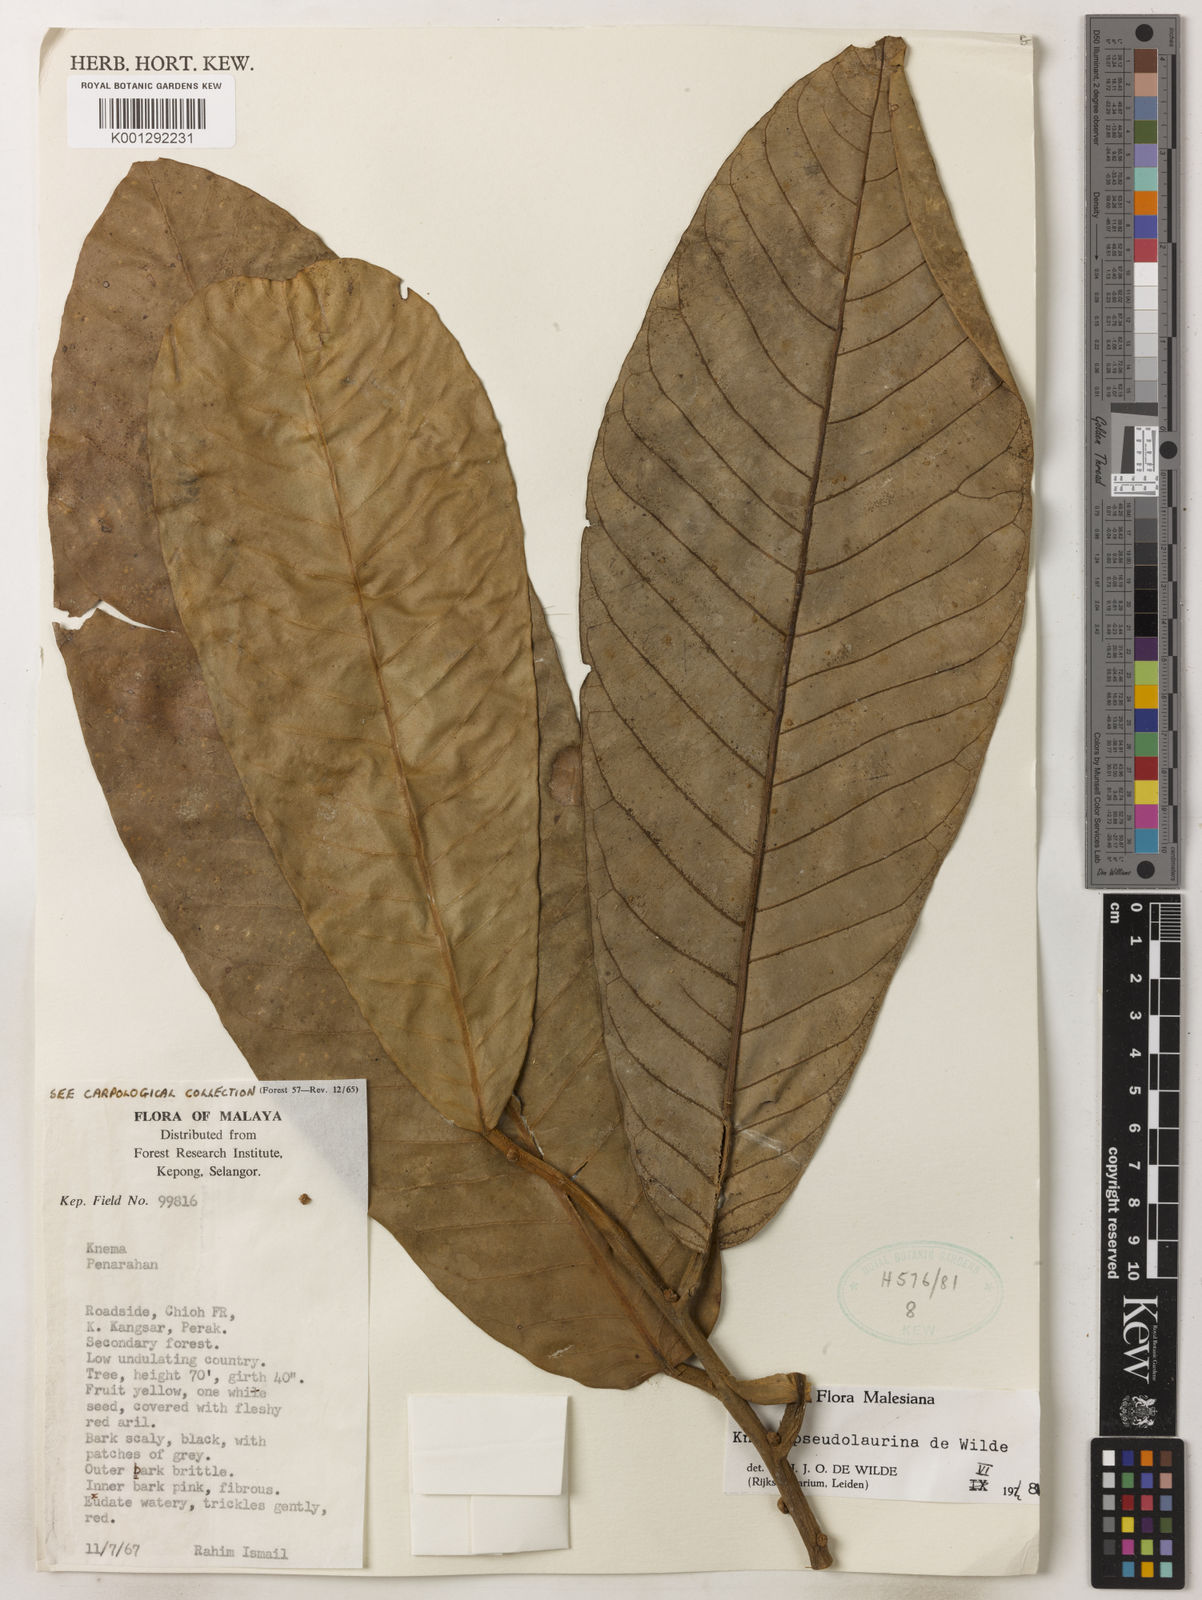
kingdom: Plantae
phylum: Tracheophyta
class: Magnoliopsida
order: Magnoliales
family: Myristicaceae
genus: Knema
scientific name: Knema pseudolaurina
